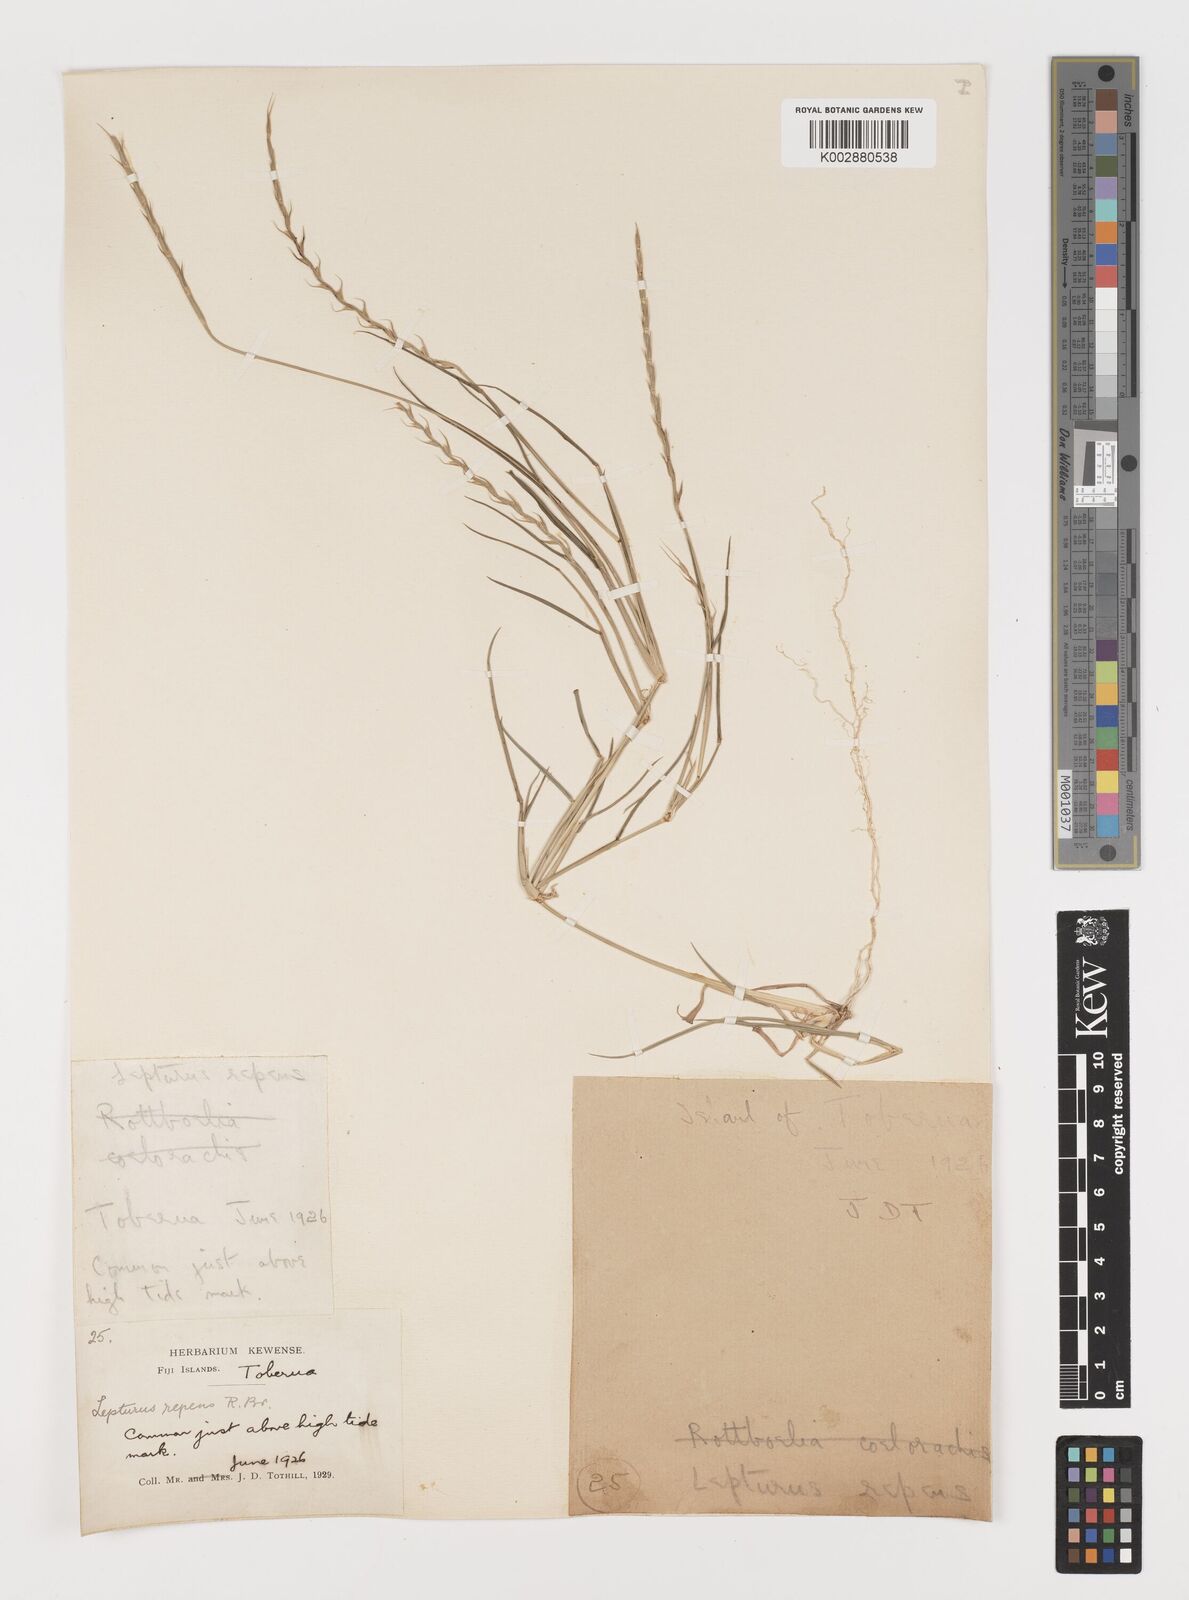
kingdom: Plantae
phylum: Tracheophyta
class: Liliopsida
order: Poales
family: Poaceae
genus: Lepturus
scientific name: Lepturus repens
